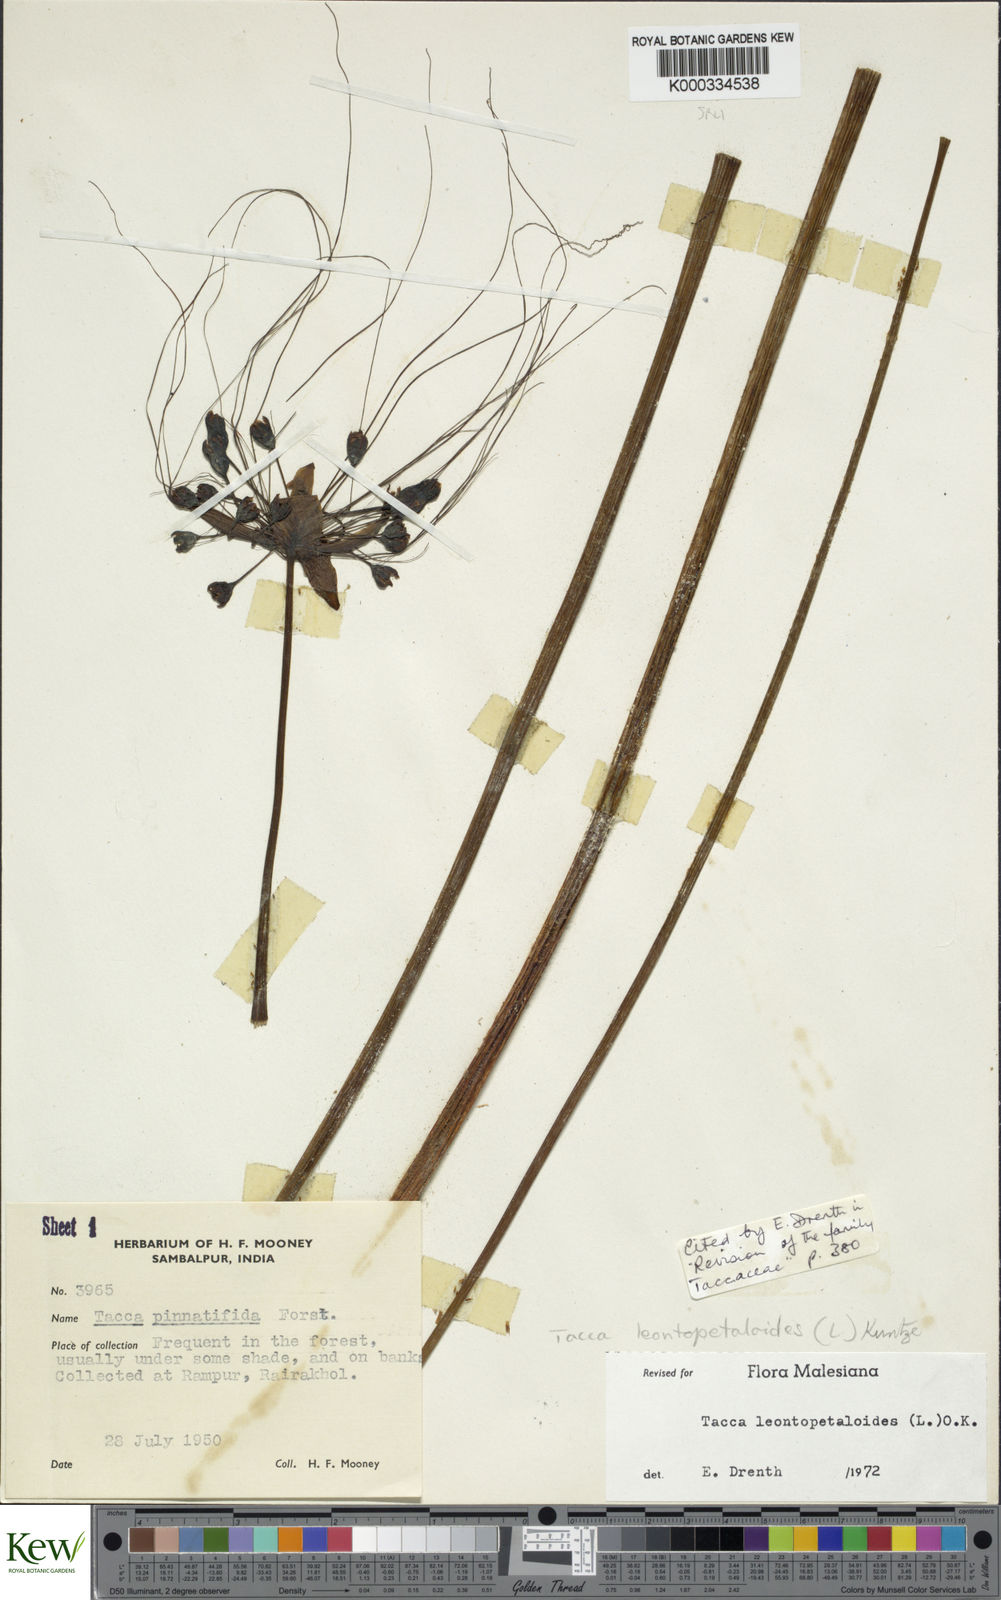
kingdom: Plantae
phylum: Tracheophyta
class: Liliopsida
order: Dioscoreales
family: Dioscoreaceae
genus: Tacca
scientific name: Tacca leontopetaloides
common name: Arrowroot
